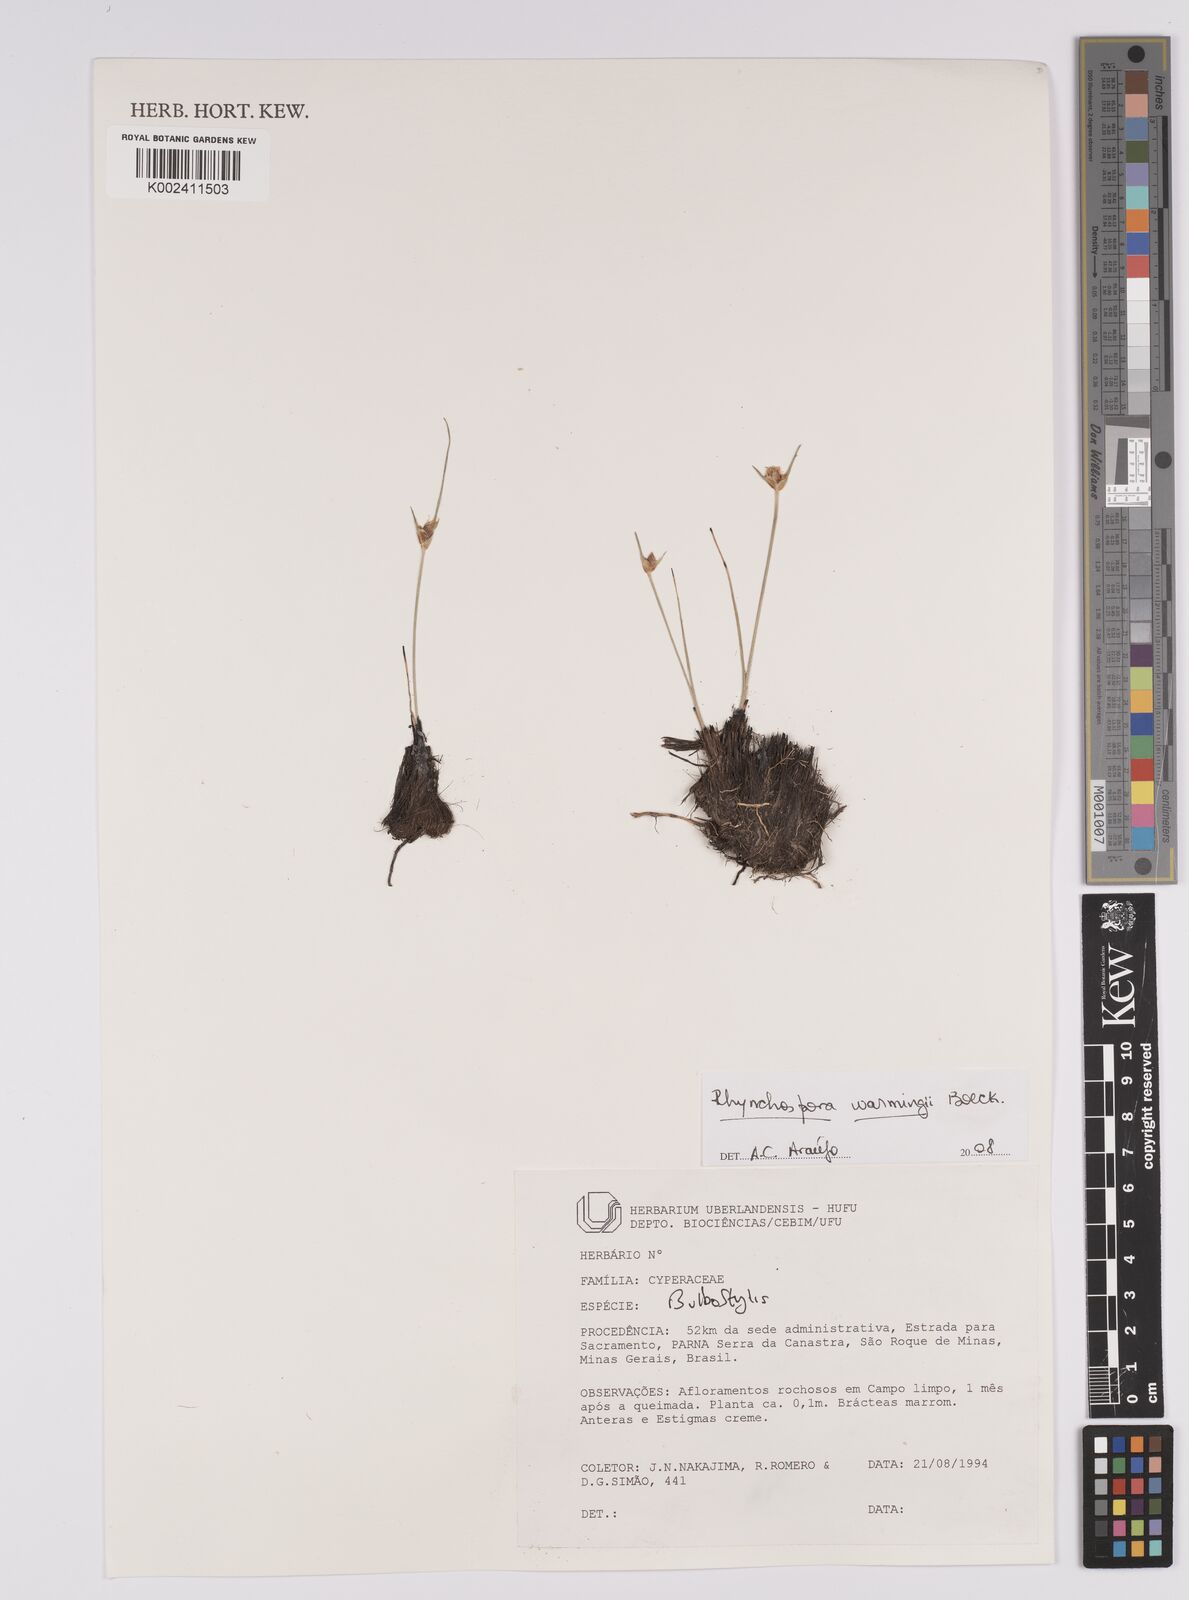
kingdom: Plantae
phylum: Tracheophyta
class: Liliopsida
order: Poales
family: Cyperaceae
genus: Rhynchospora
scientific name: Rhynchospora warmingii
